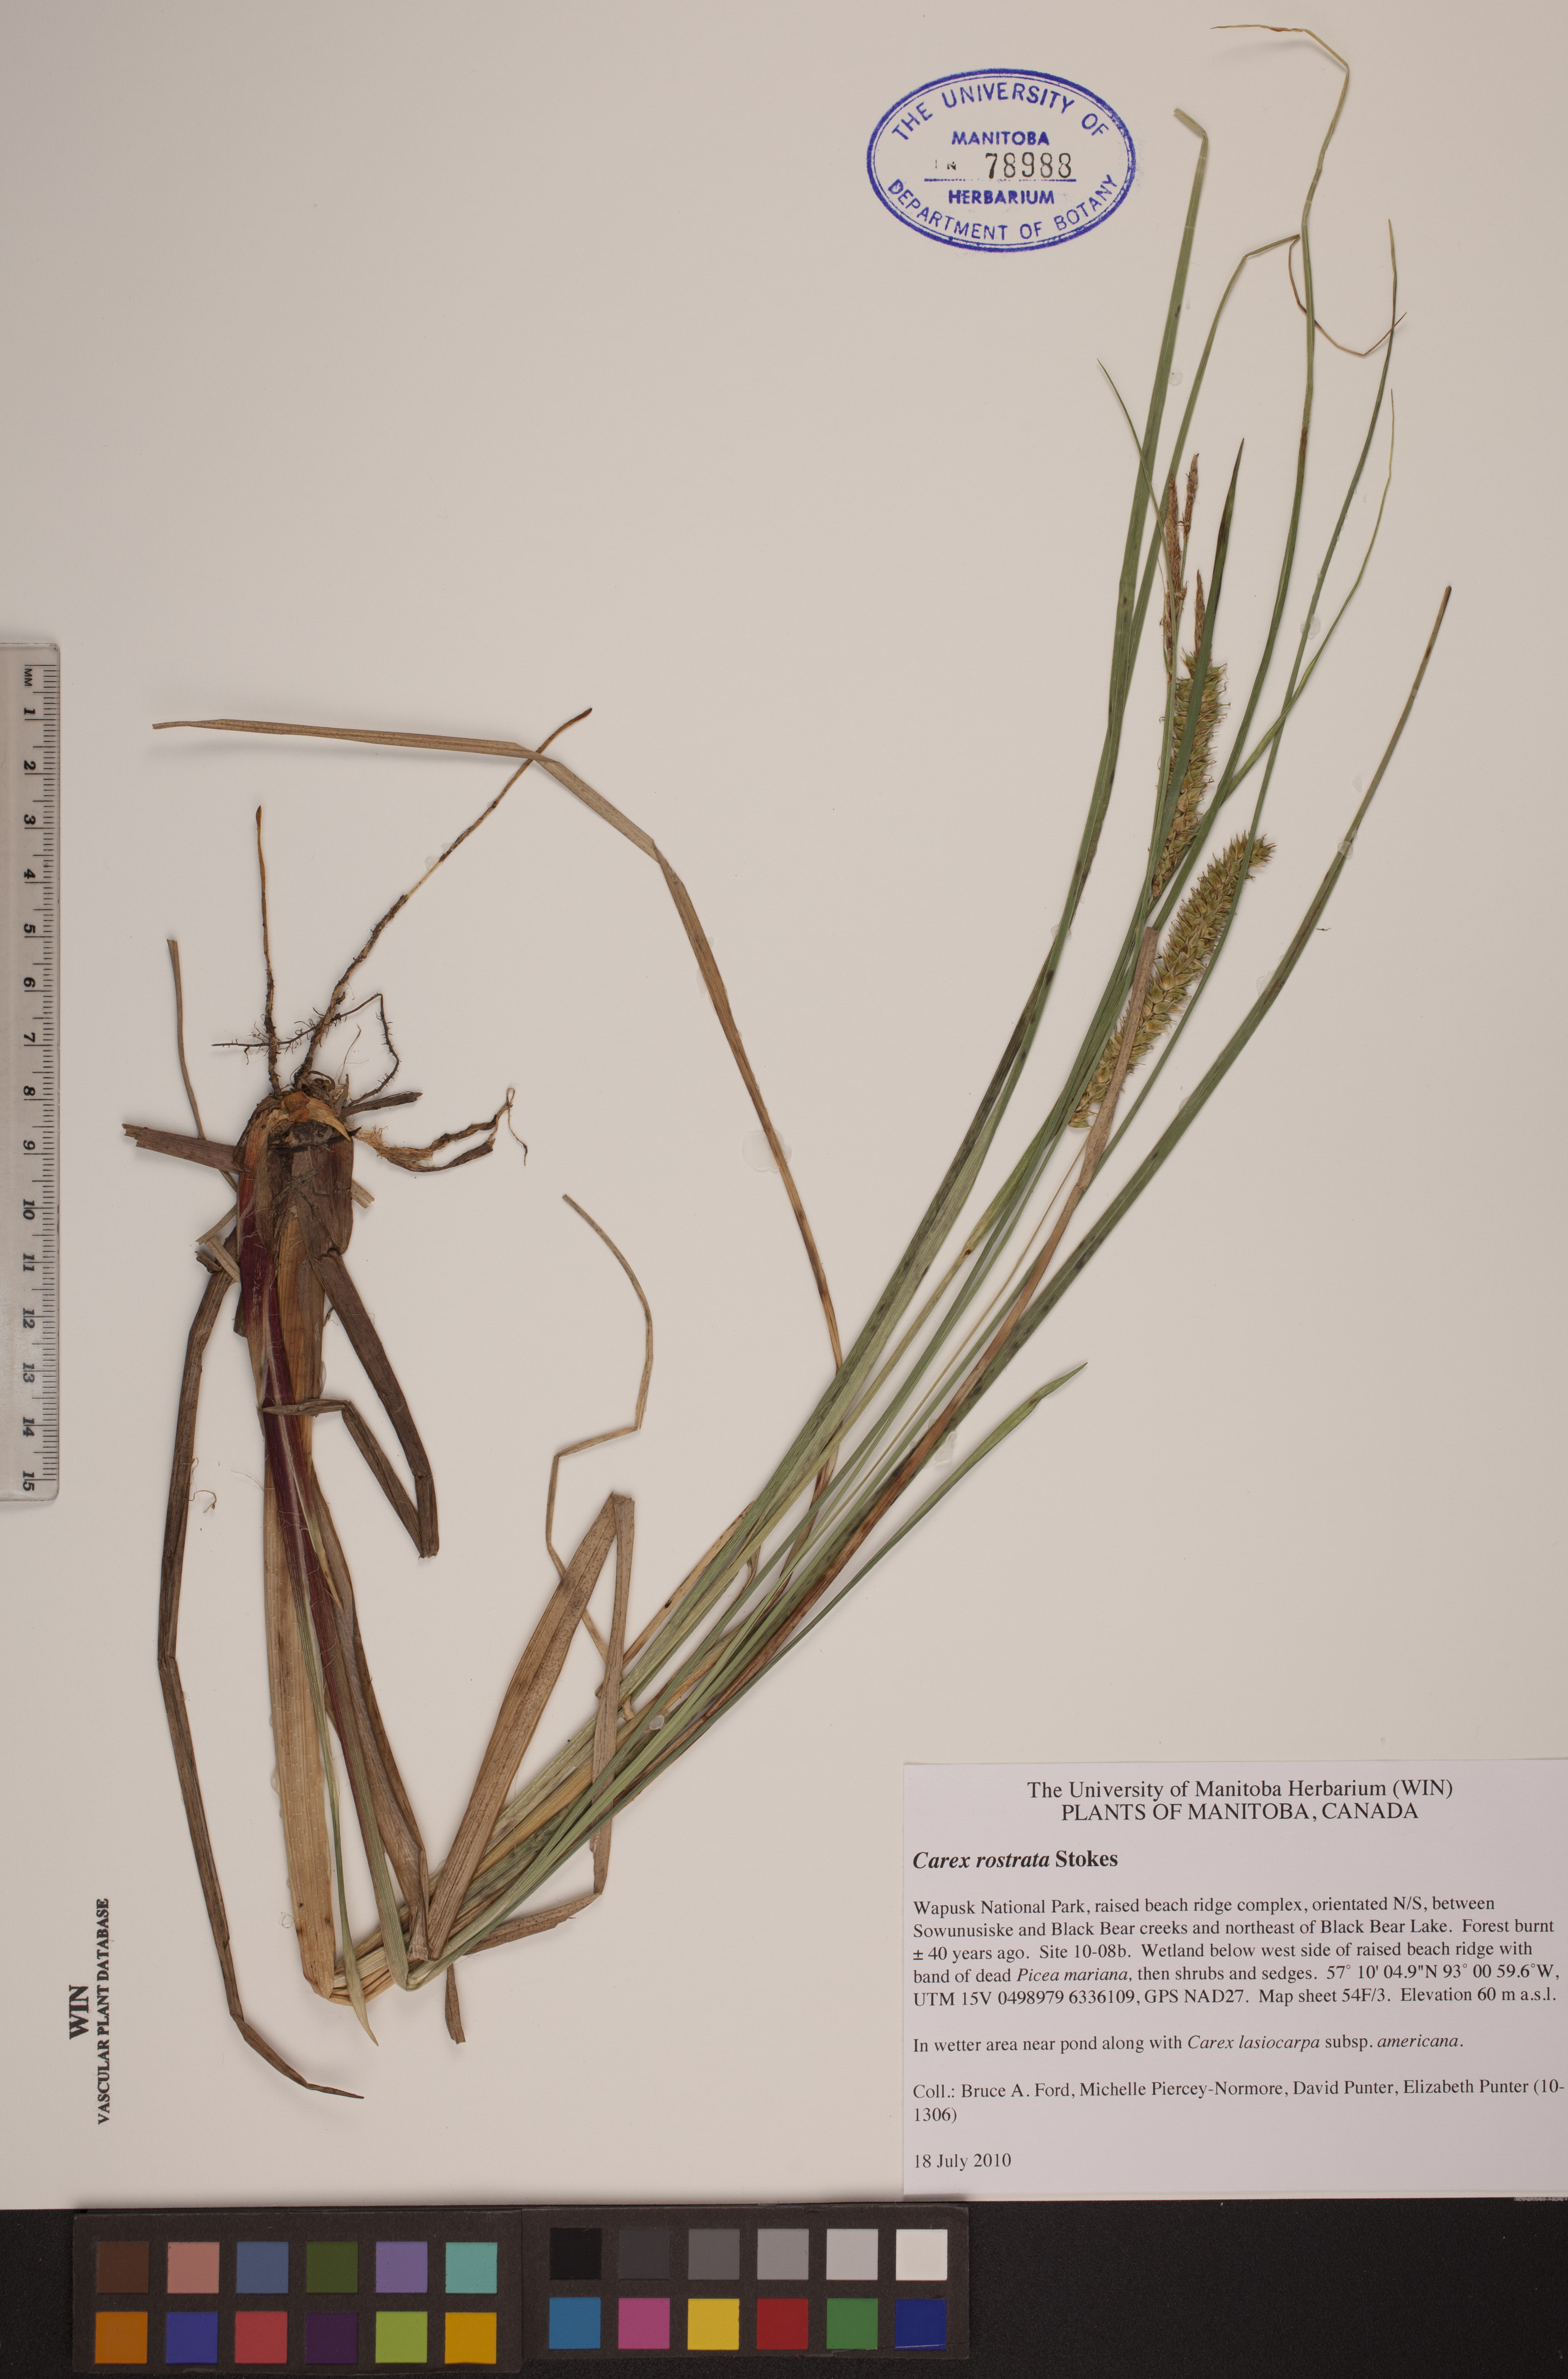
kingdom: Plantae
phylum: Tracheophyta
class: Liliopsida
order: Poales
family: Cyperaceae
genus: Carex
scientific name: Carex rostrata
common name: Bottle sedge
